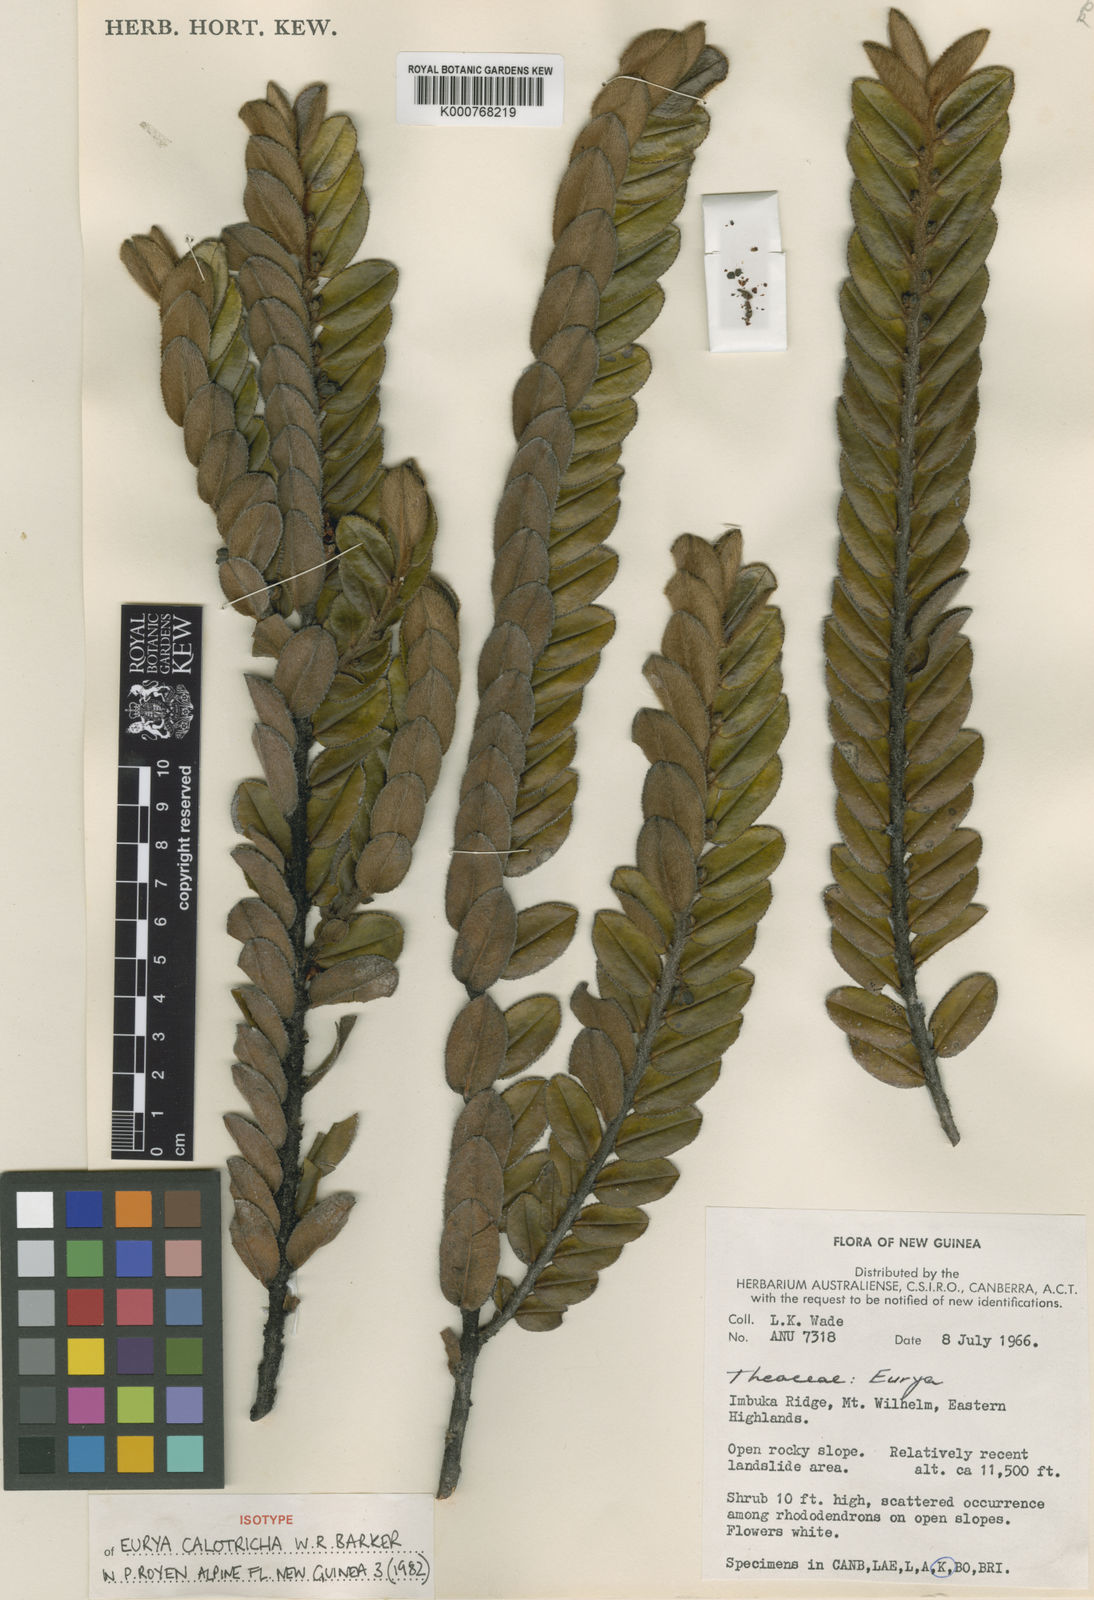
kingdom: Plantae
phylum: Tracheophyta
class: Magnoliopsida
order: Ericales
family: Pentaphylacaceae
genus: Eurya
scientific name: Eurya calotricha
